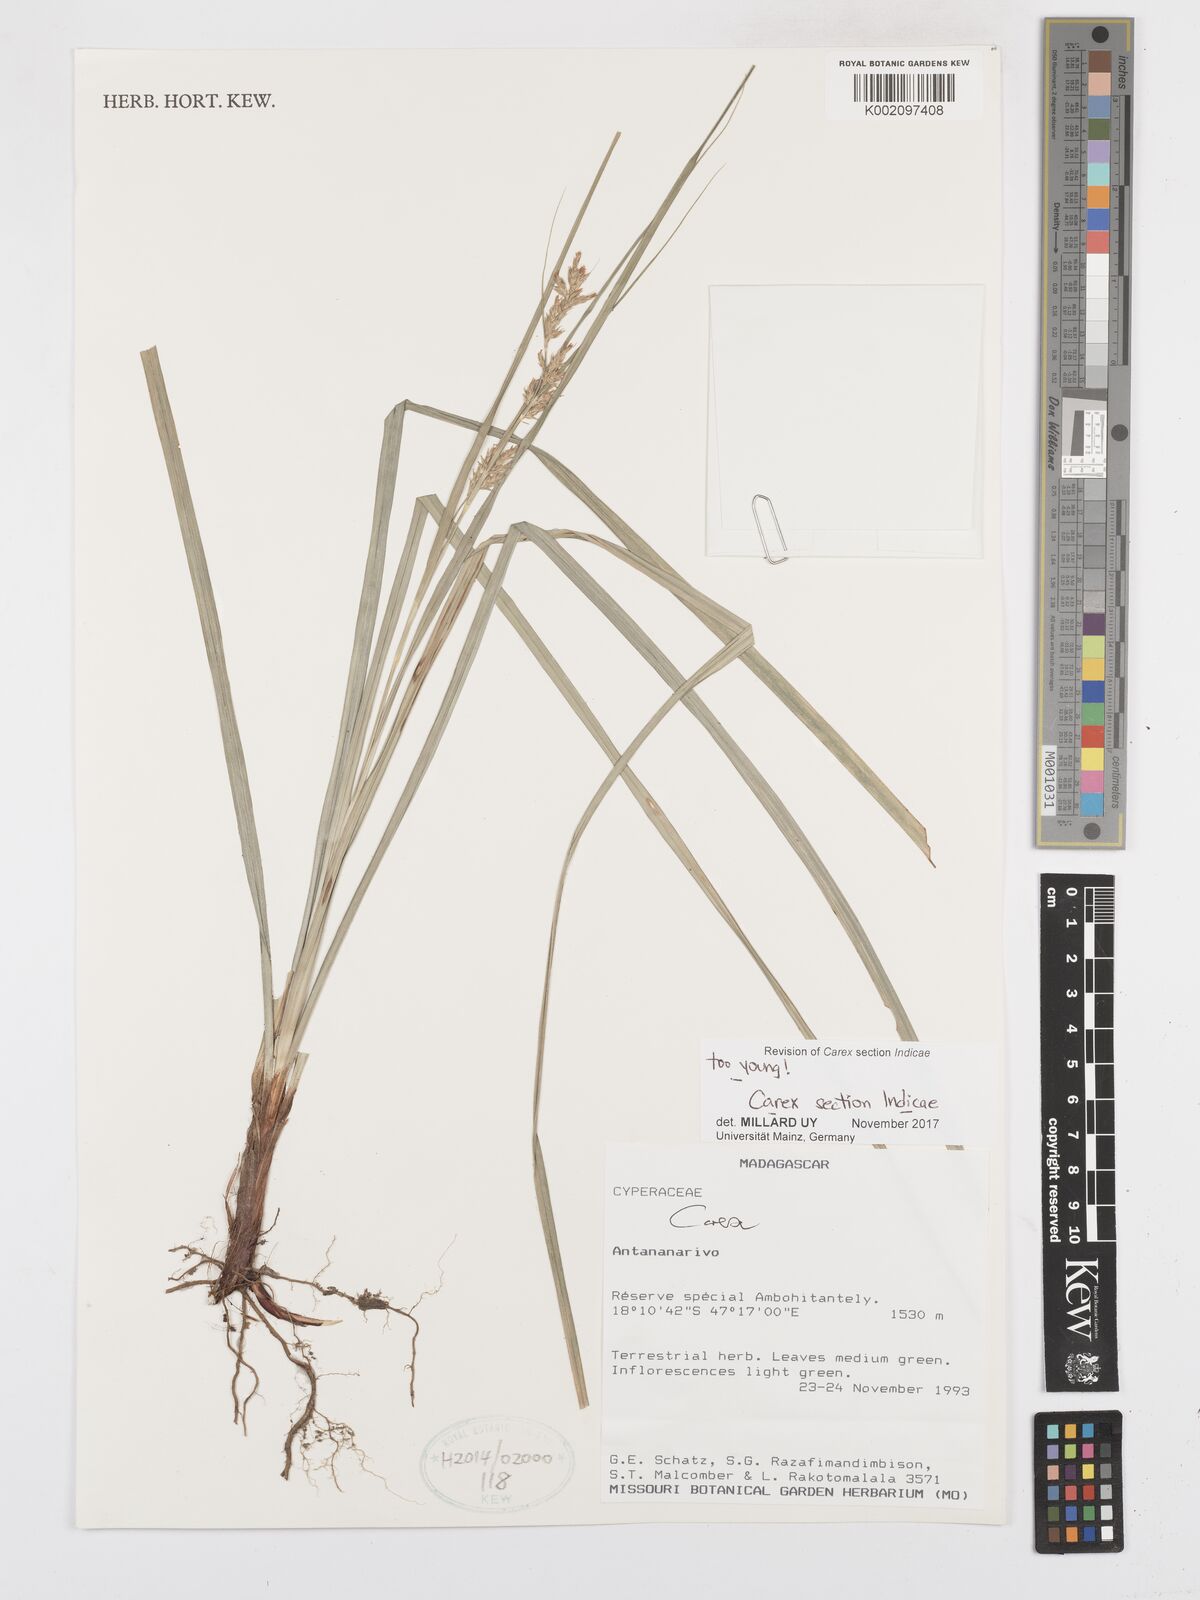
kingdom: Plantae
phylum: Tracheophyta
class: Liliopsida
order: Poales
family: Cyperaceae
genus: Carex
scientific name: Carex
